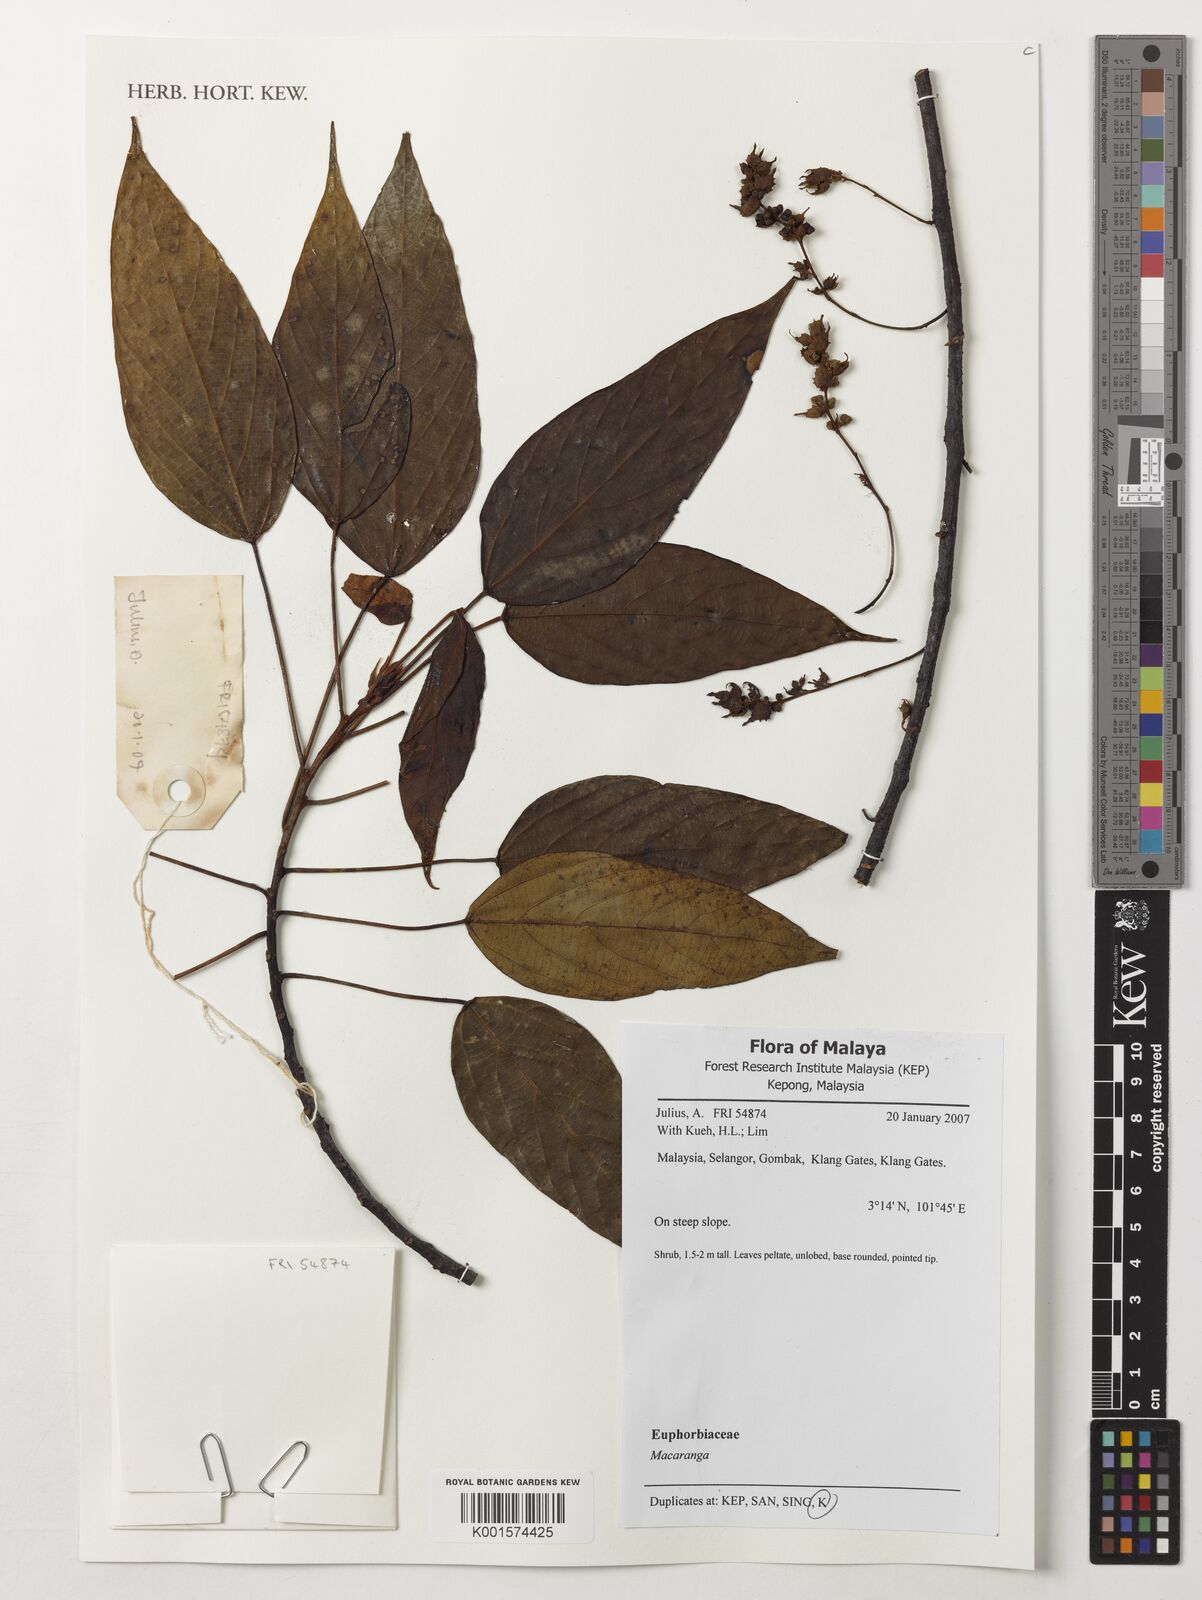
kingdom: Plantae
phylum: Tracheophyta
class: Magnoliopsida
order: Malpighiales
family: Euphorbiaceae
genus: Macaranga
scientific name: Macaranga
